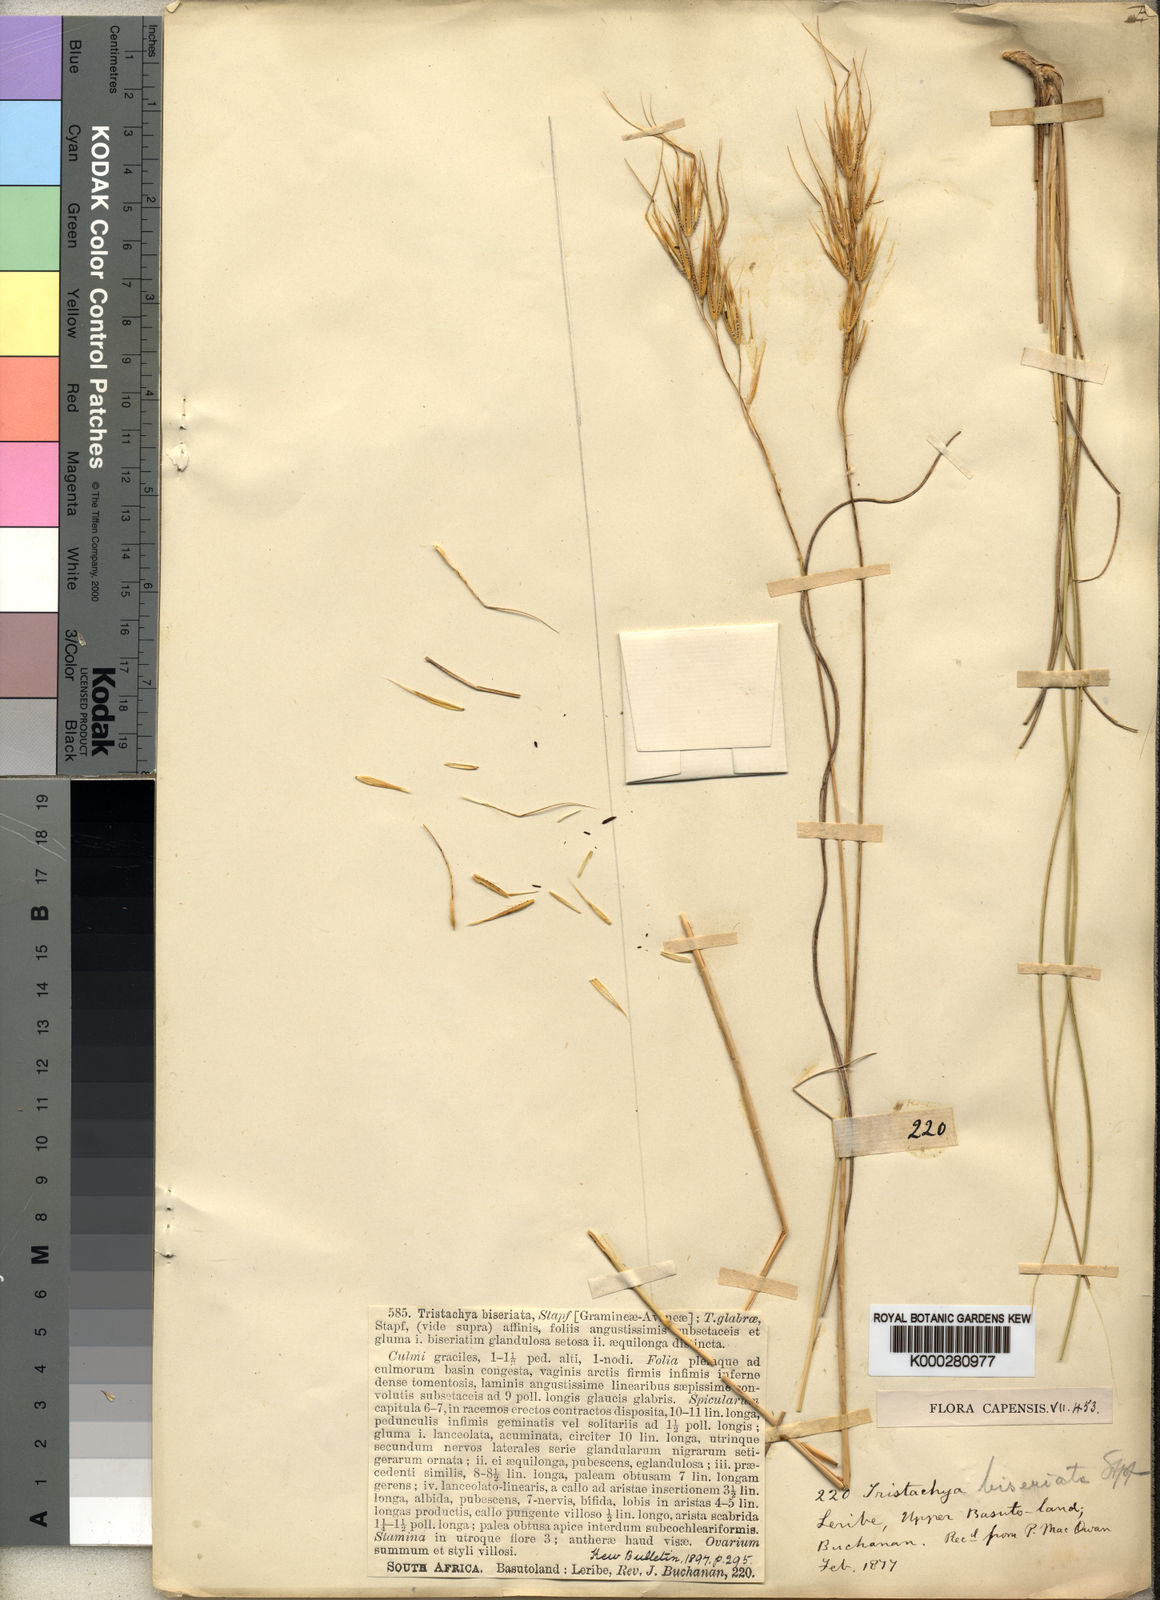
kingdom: Plantae
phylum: Tracheophyta
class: Liliopsida
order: Poales
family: Poaceae
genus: Tristachya
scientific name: Tristachya biseriata
